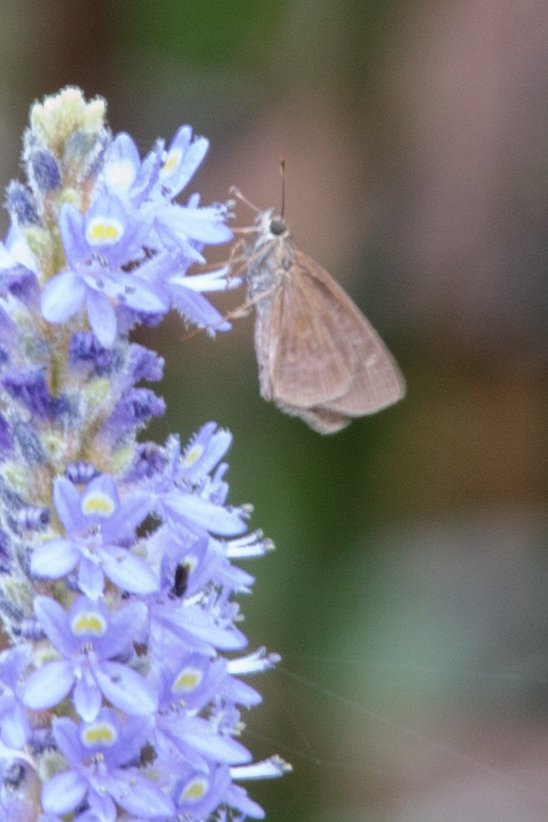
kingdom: Animalia
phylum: Arthropoda
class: Insecta
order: Lepidoptera
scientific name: Lepidoptera
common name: Butterflies
